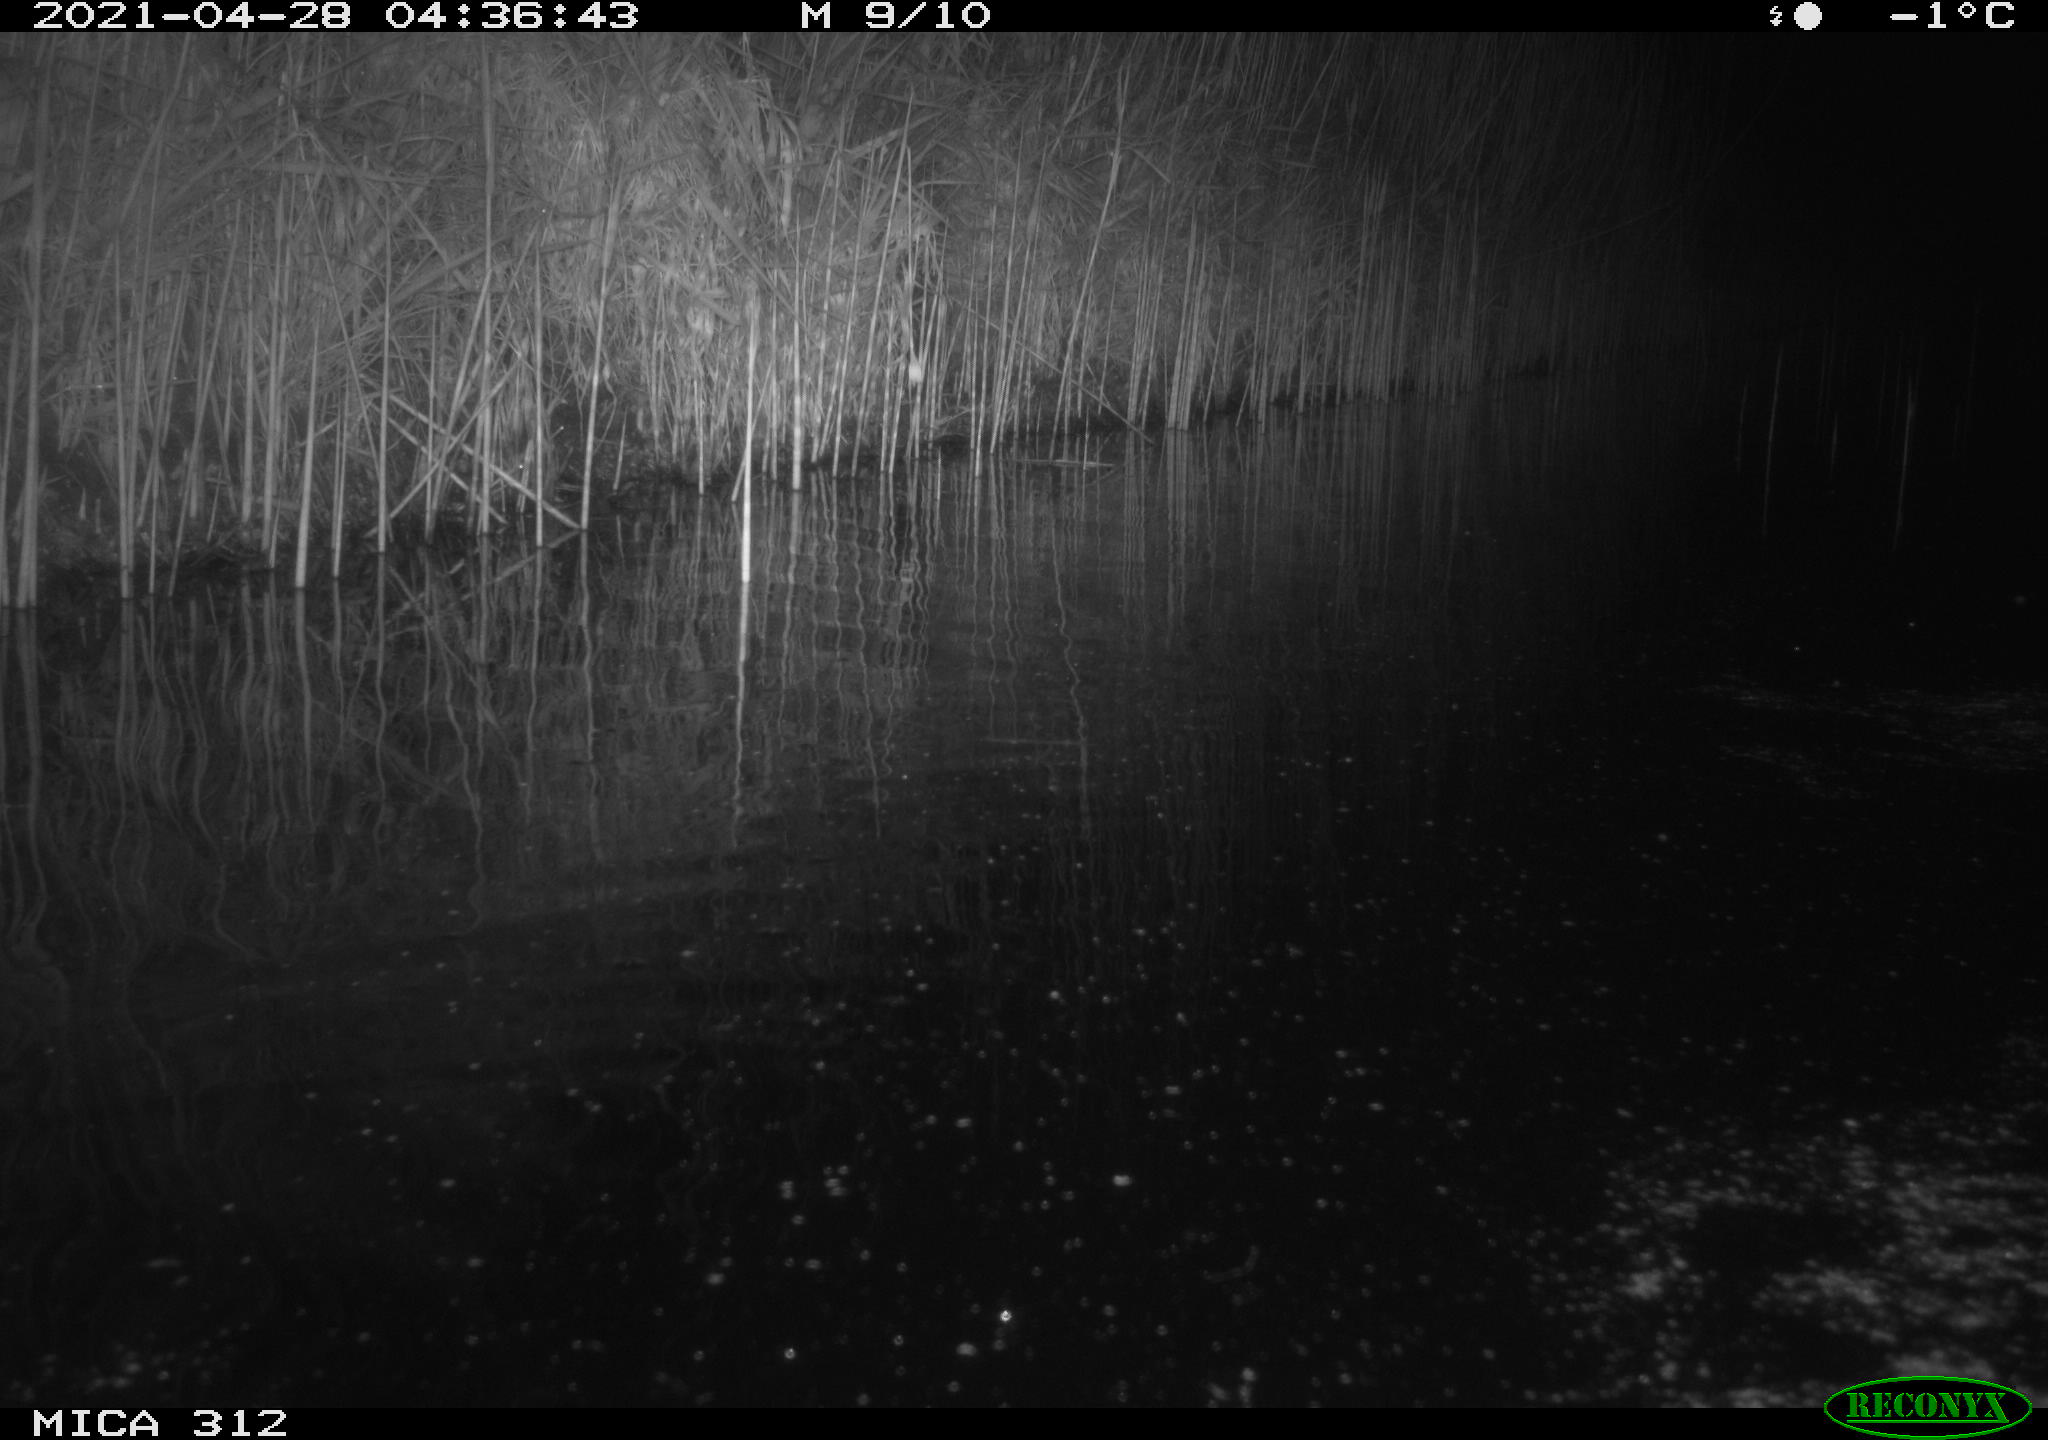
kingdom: Animalia
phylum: Chordata
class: Mammalia
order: Rodentia
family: Muridae
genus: Rattus
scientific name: Rattus norvegicus
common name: Brown rat
